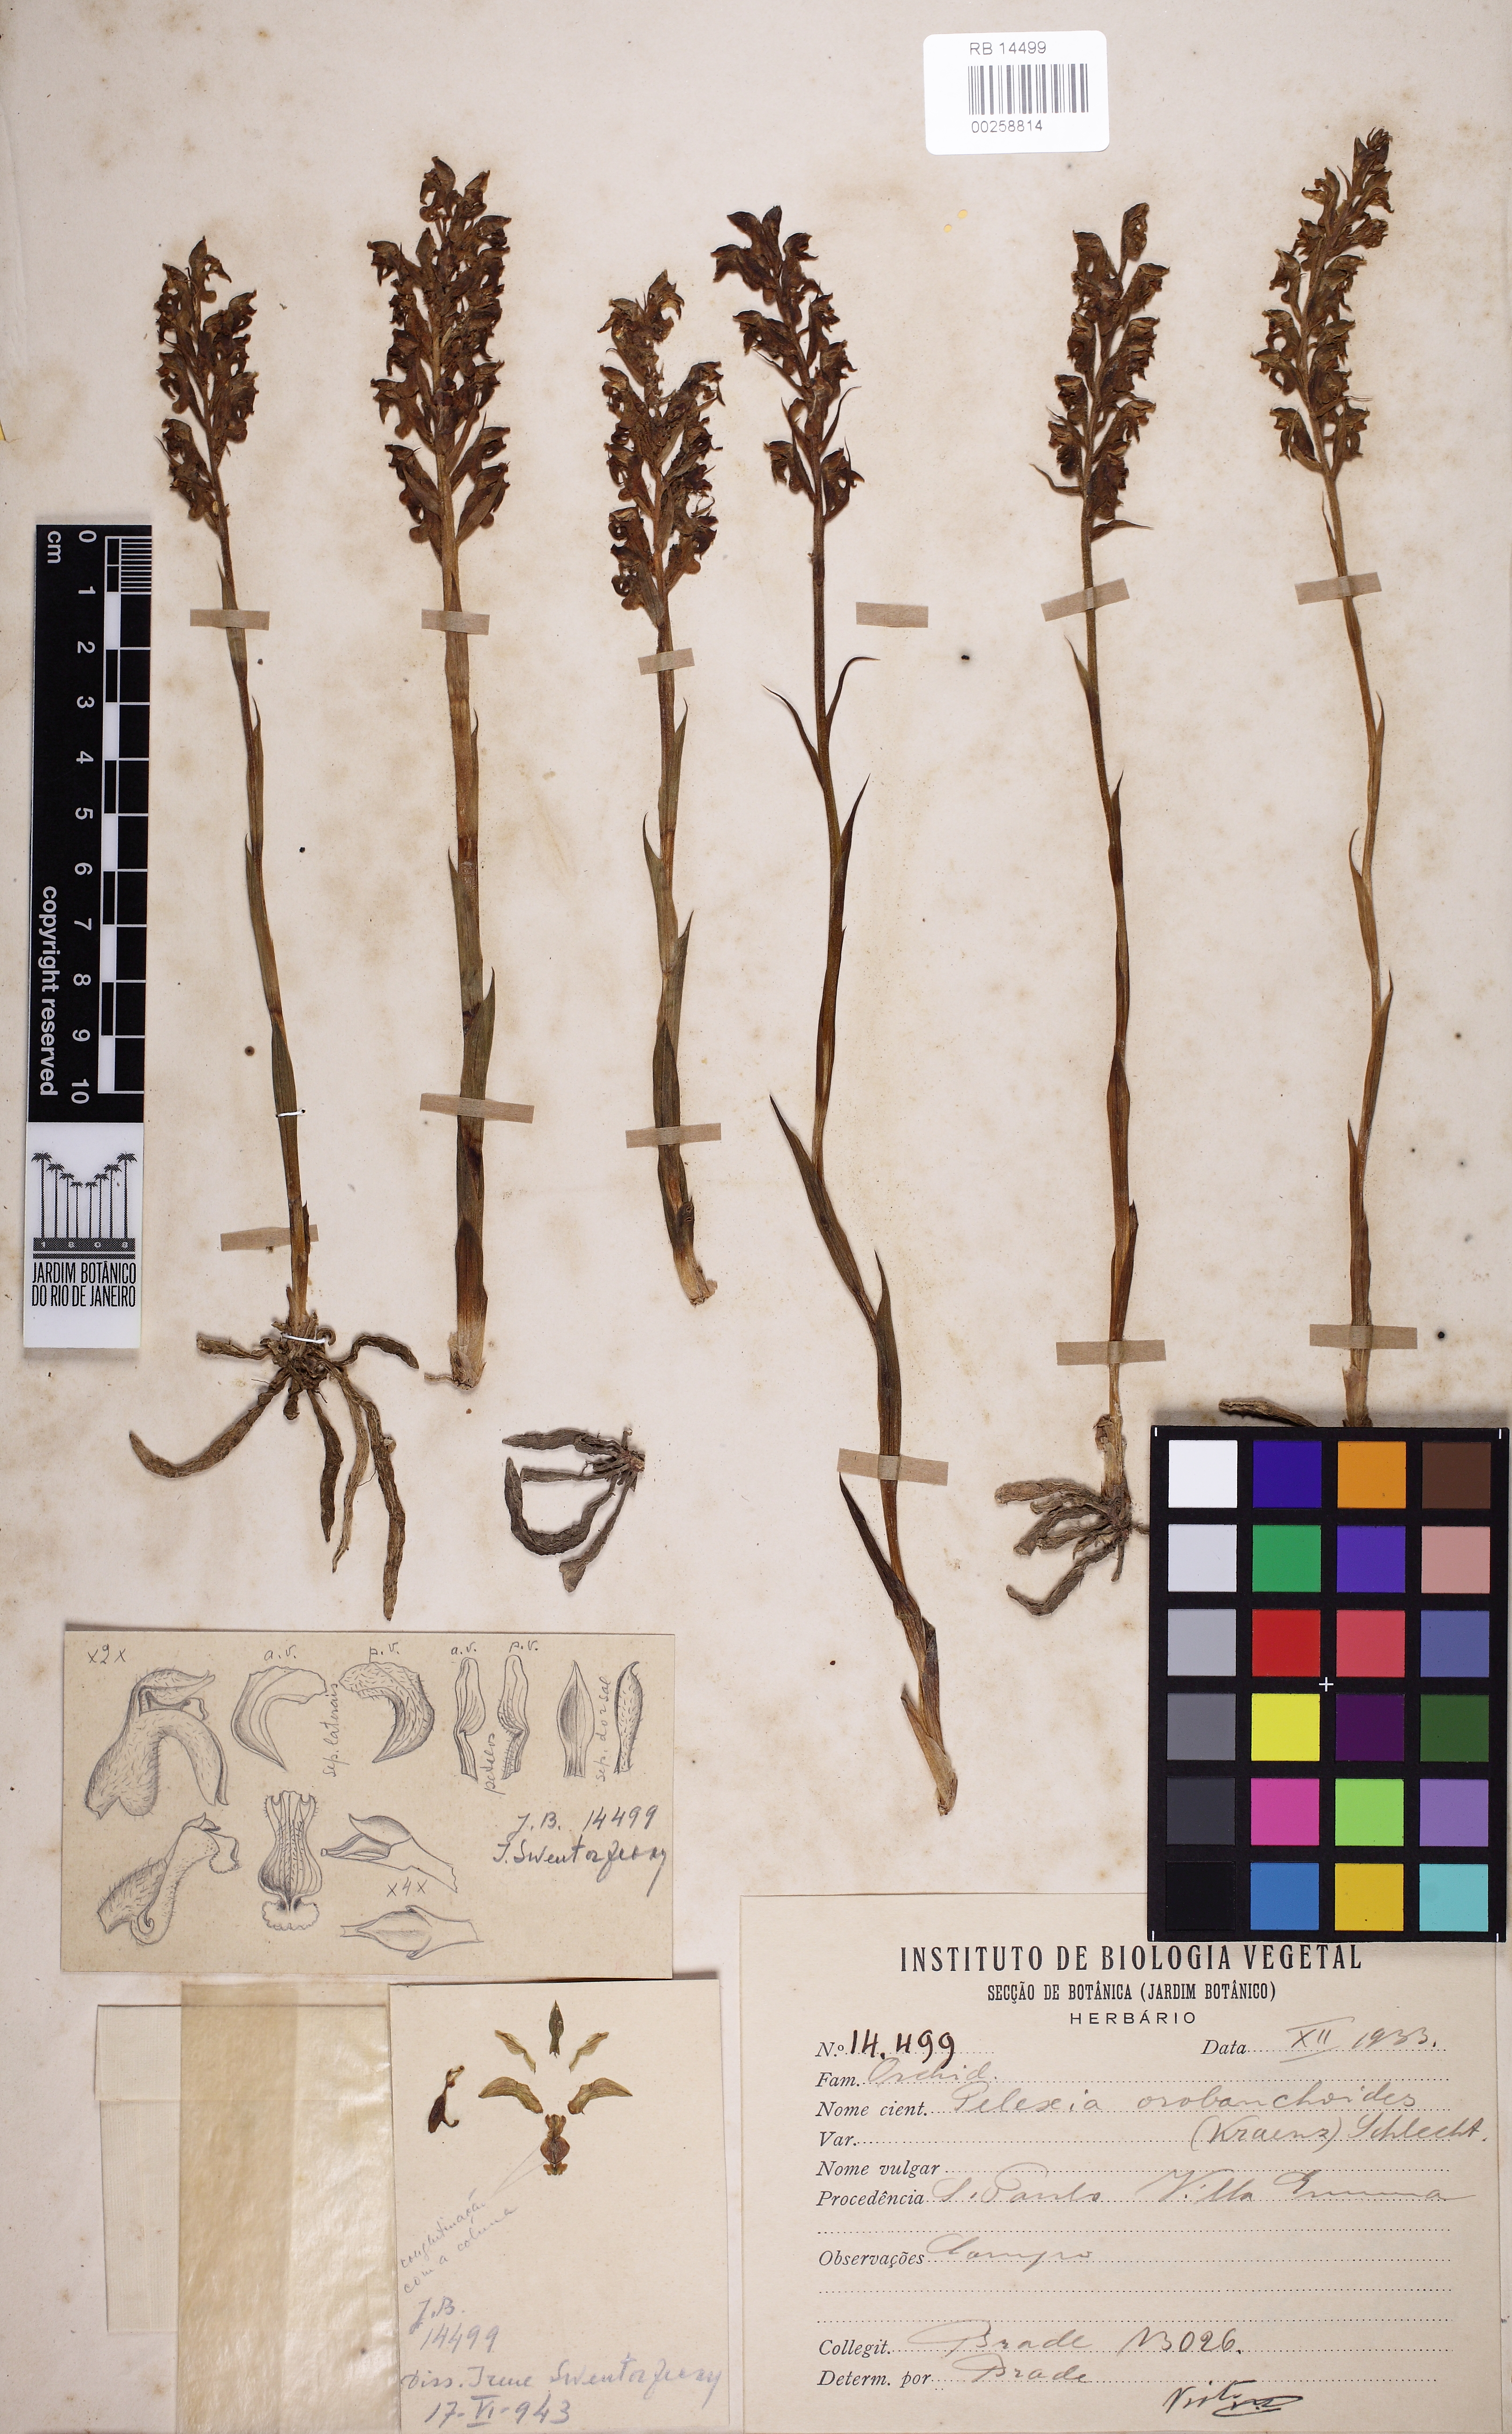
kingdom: Plantae
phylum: Tracheophyta
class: Liliopsida
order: Asparagales
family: Orchidaceae
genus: Pelexia
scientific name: Pelexia orobanchoides
